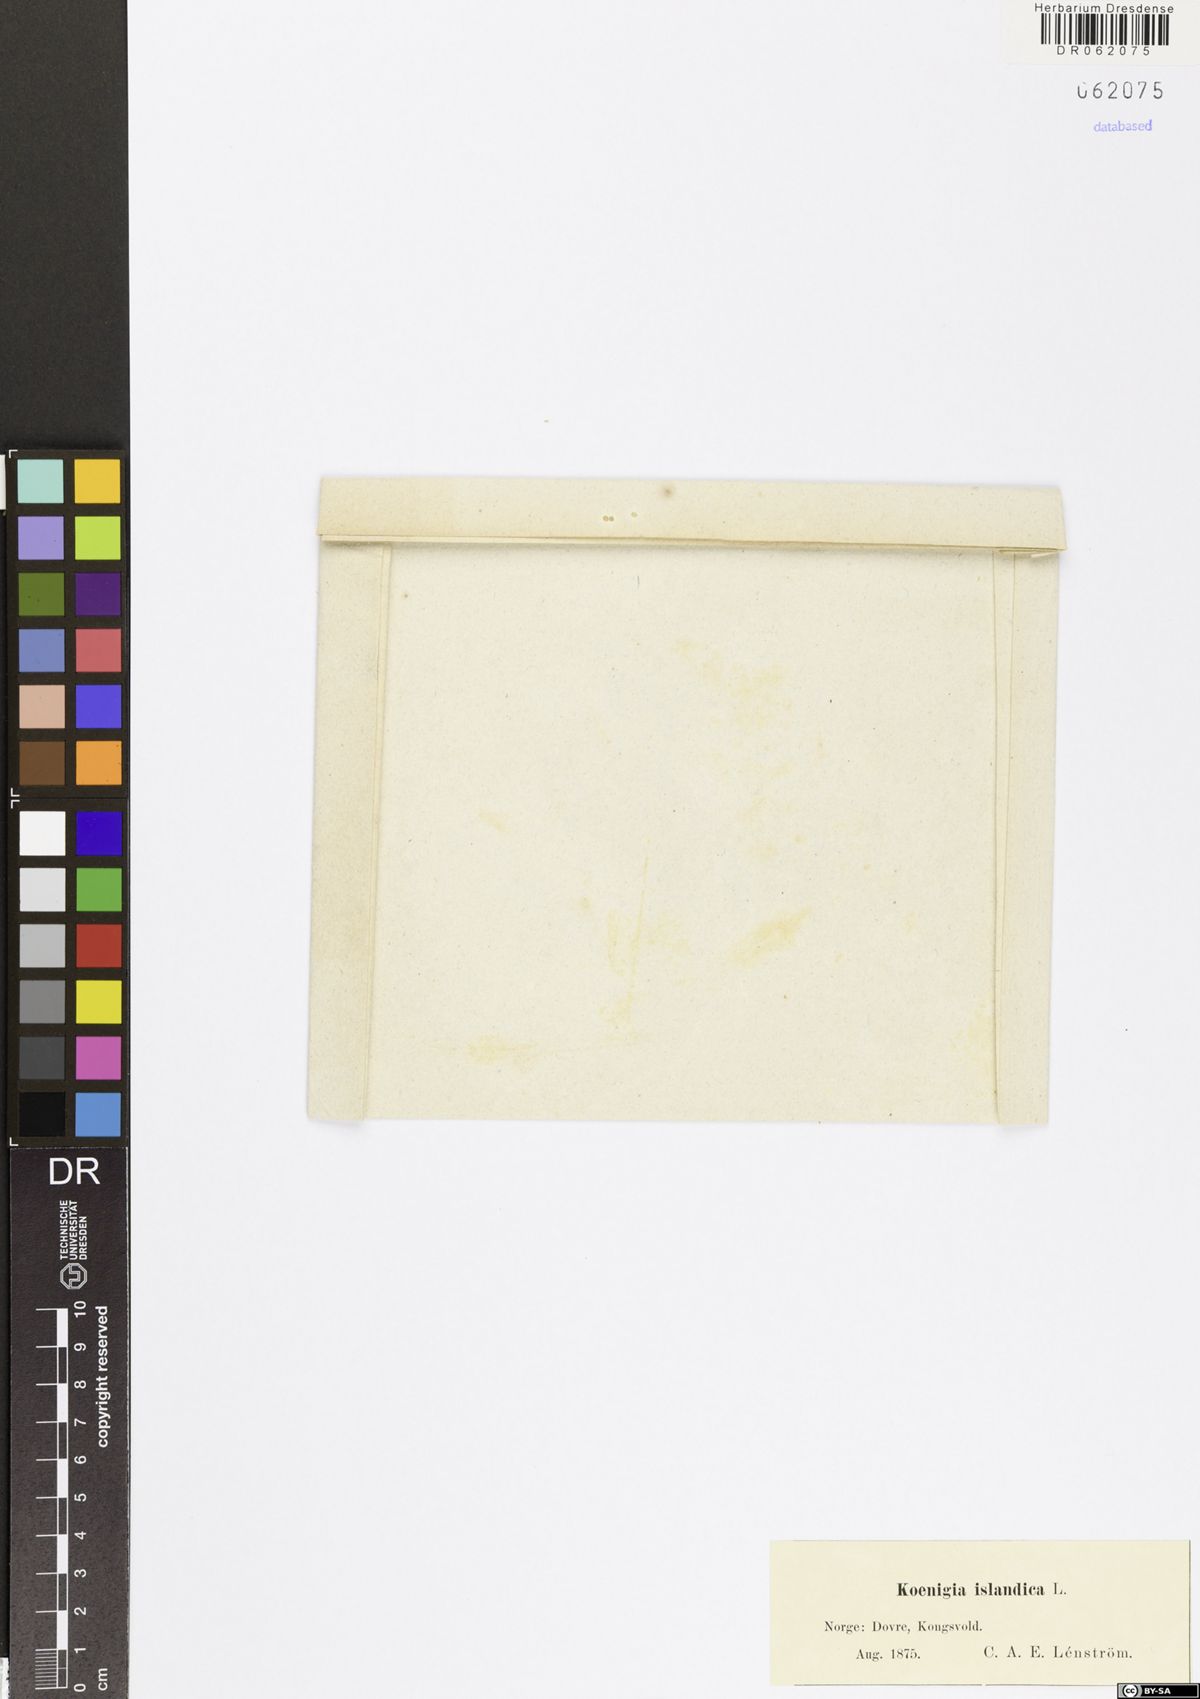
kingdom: Plantae
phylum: Tracheophyta
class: Magnoliopsida
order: Caryophyllales
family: Polygonaceae
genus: Koenigia
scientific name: Koenigia islandica
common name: Iceland-purslane
